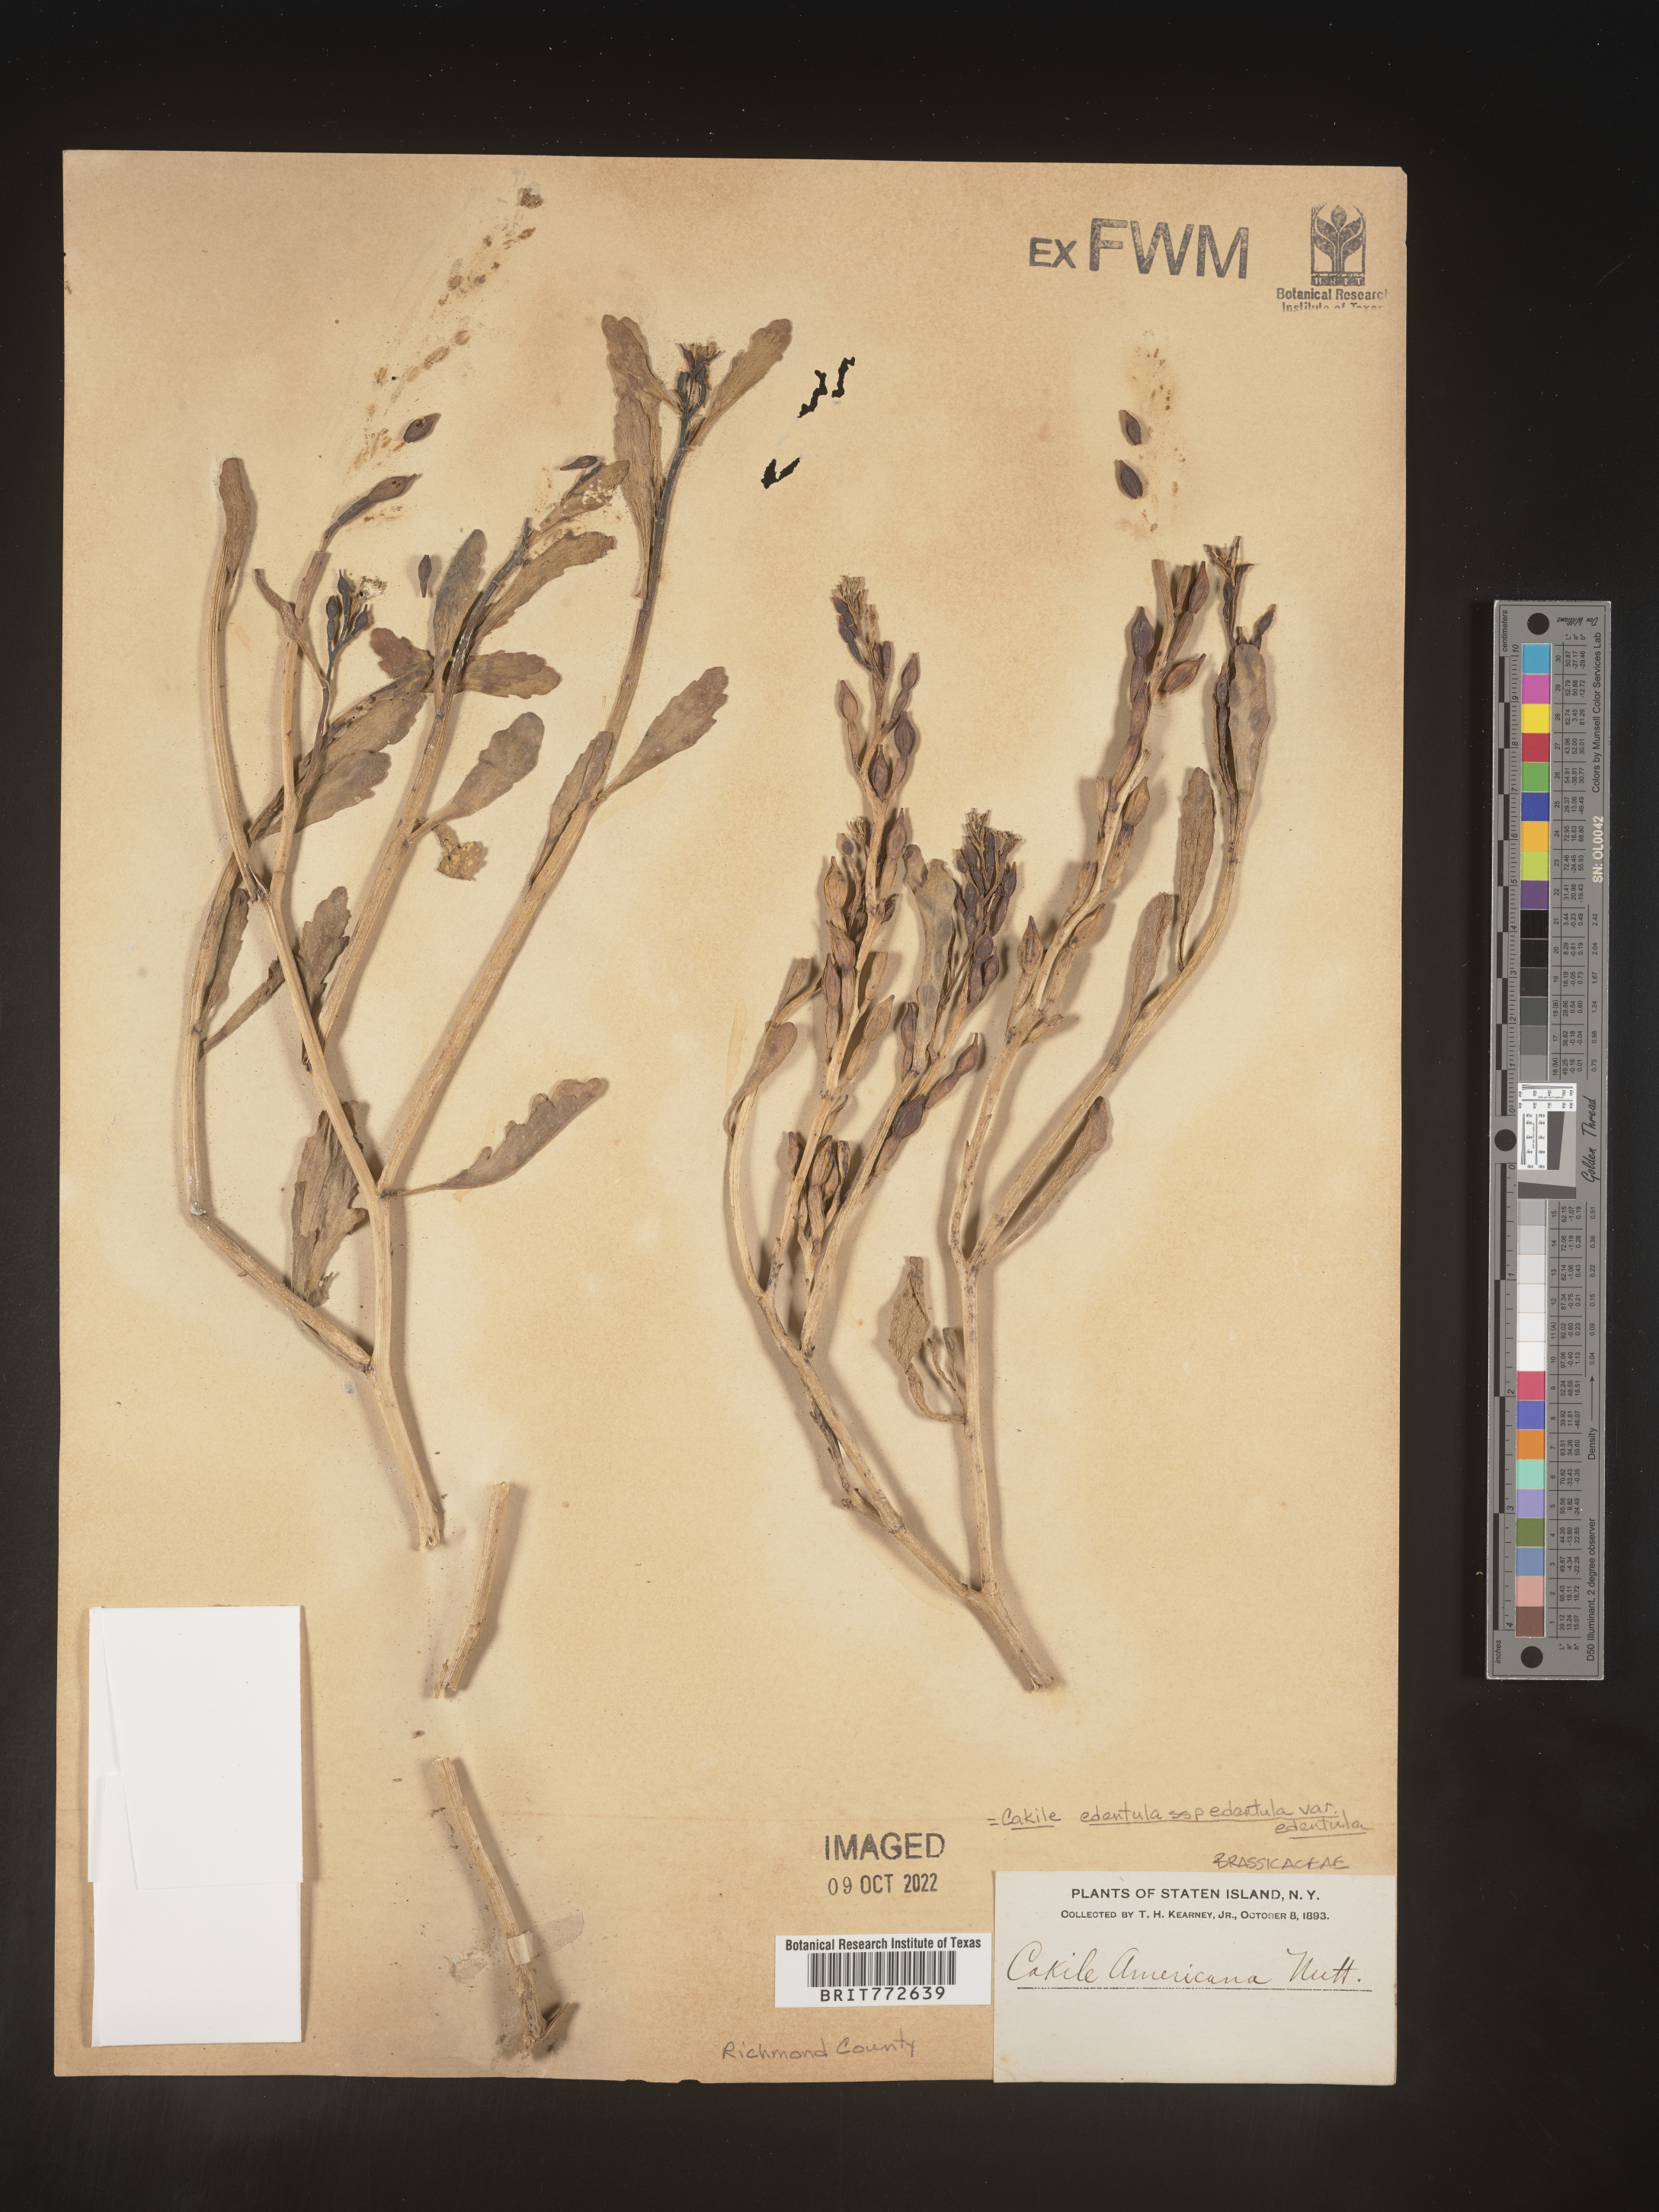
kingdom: Plantae
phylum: Tracheophyta
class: Magnoliopsida
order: Brassicales
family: Brassicaceae
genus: Cakile
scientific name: Cakile edentula
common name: American sea rocket
